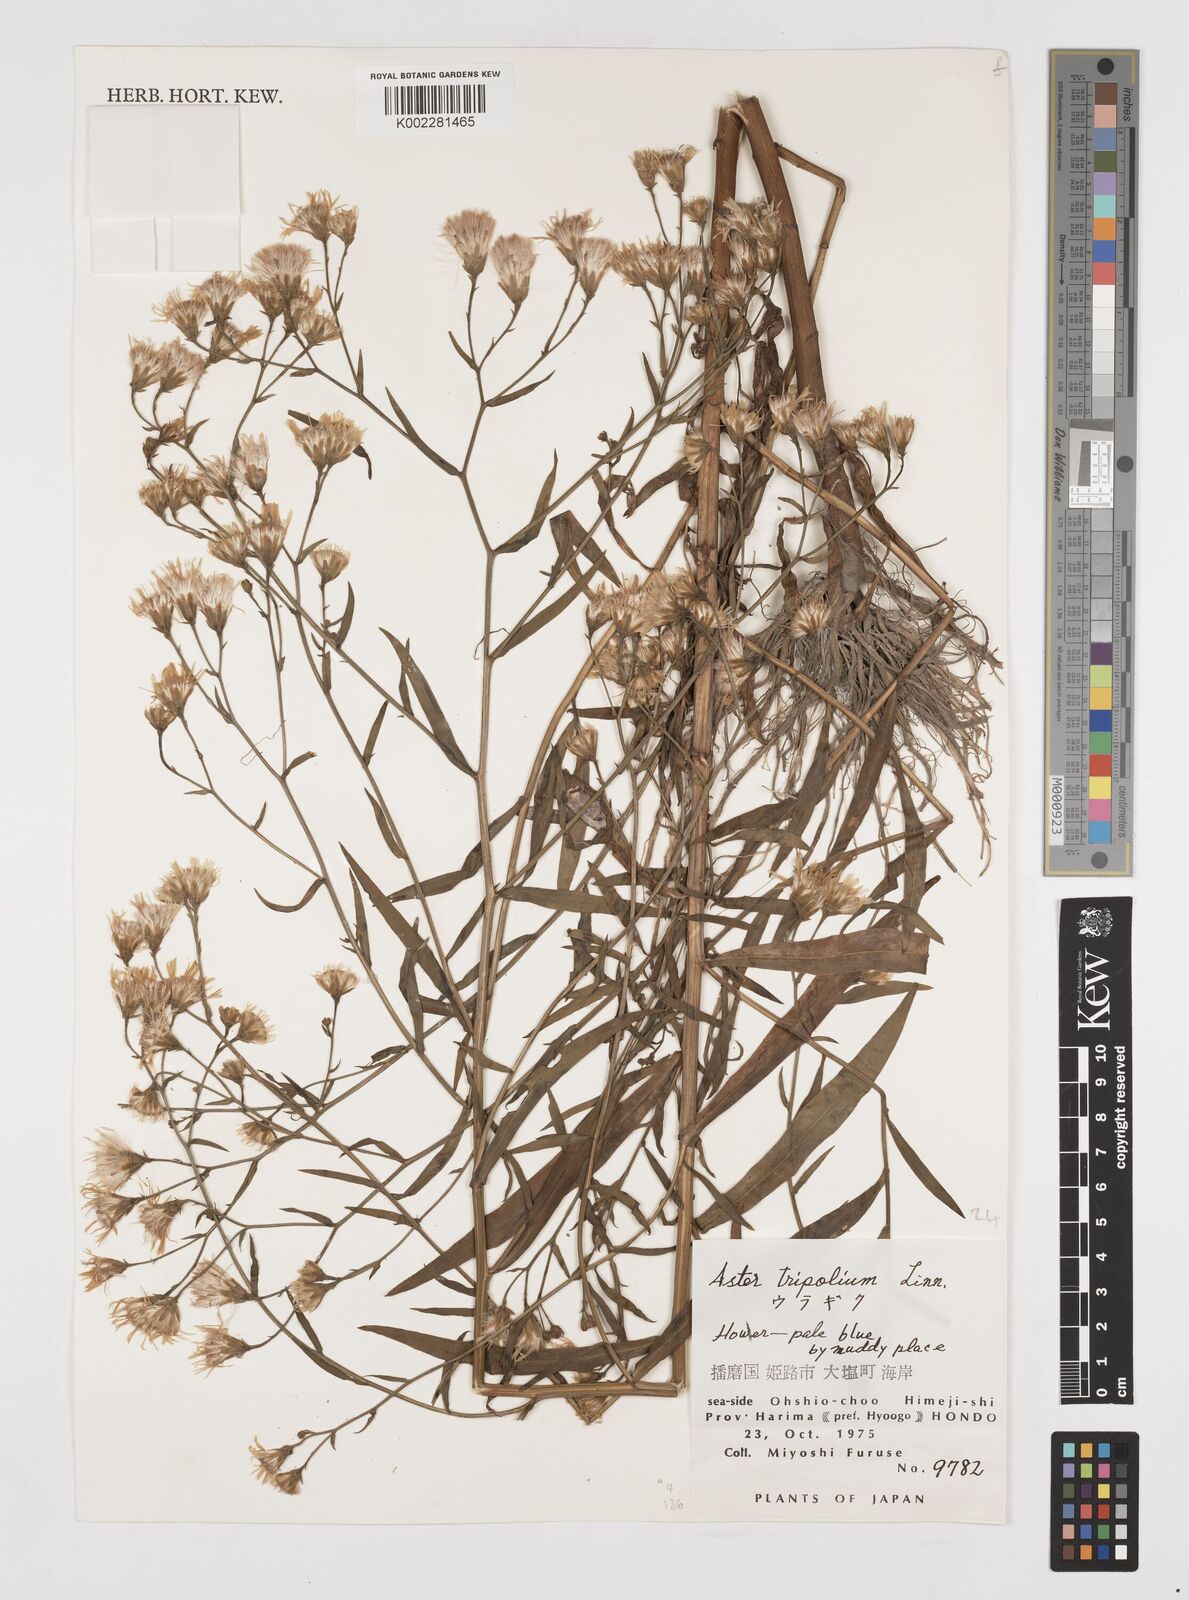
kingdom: Plantae
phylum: Tracheophyta
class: Magnoliopsida
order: Asterales
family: Asteraceae
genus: Tripolium
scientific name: Tripolium pannonicum
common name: Sea aster
